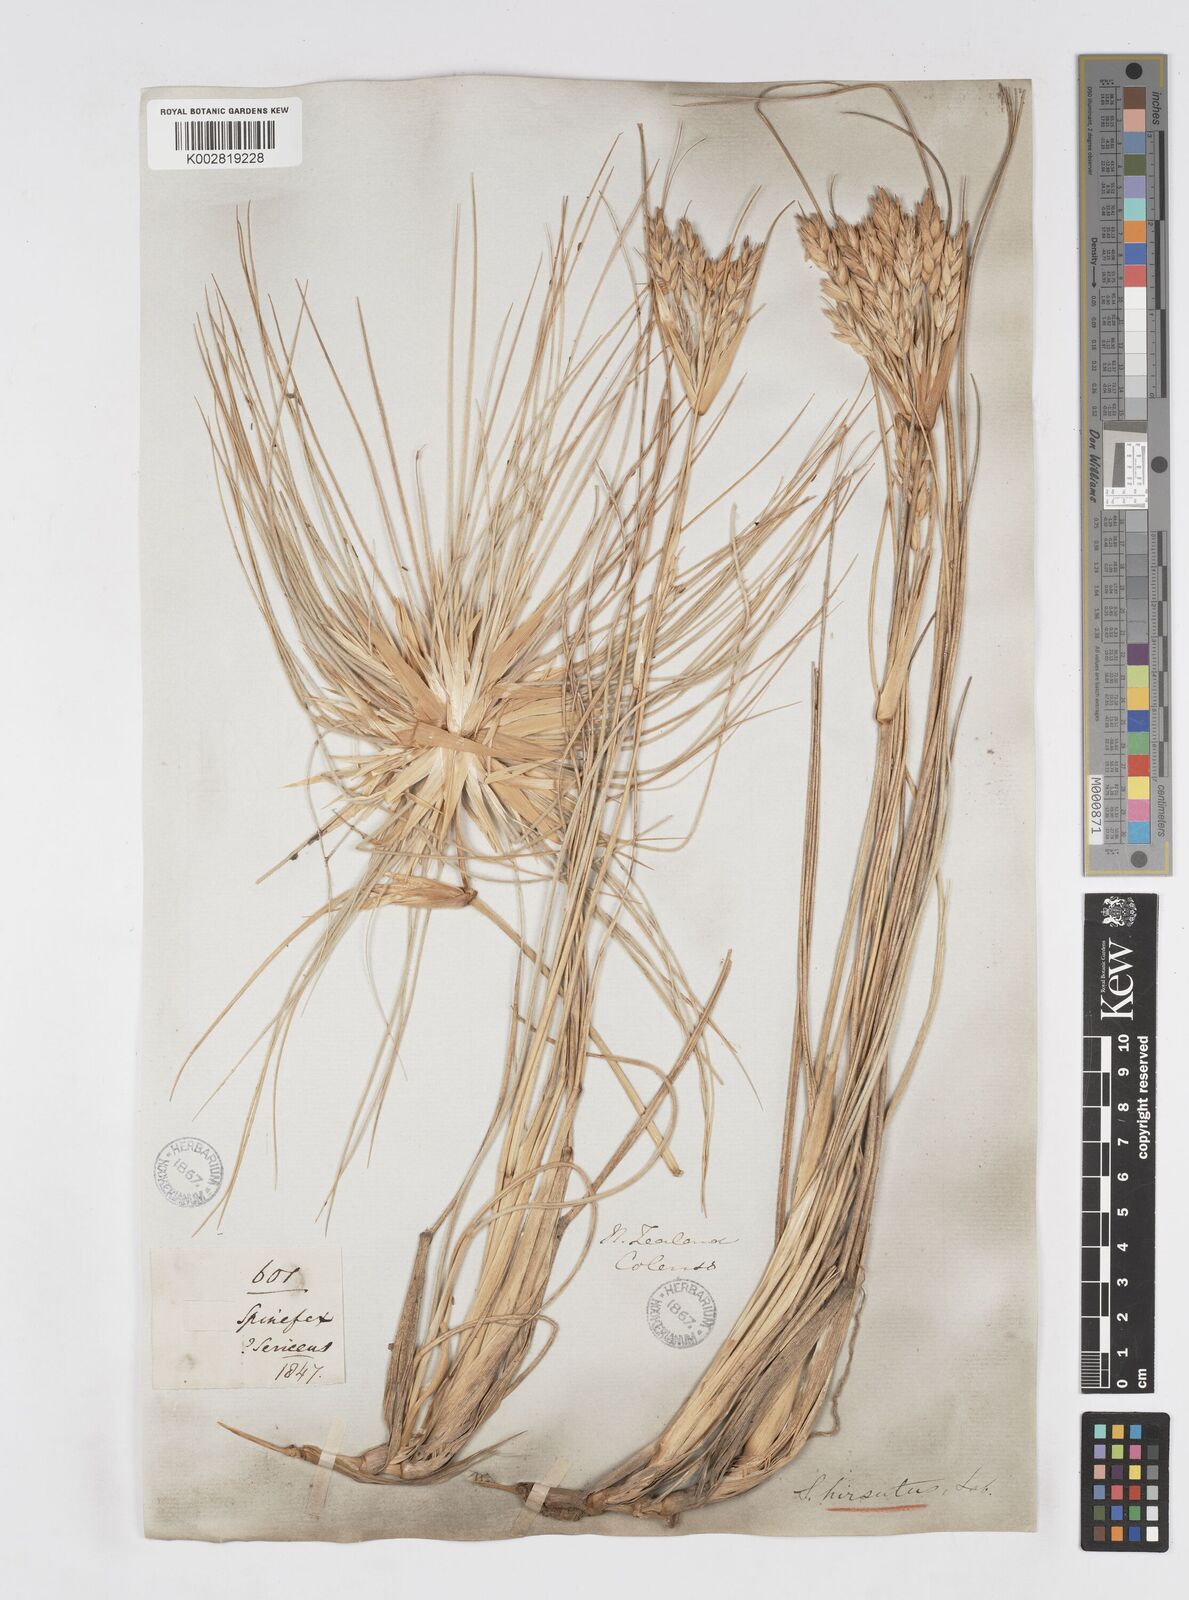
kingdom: Plantae
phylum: Tracheophyta
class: Liliopsida
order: Poales
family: Poaceae
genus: Spinifex
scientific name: Spinifex sericeus
